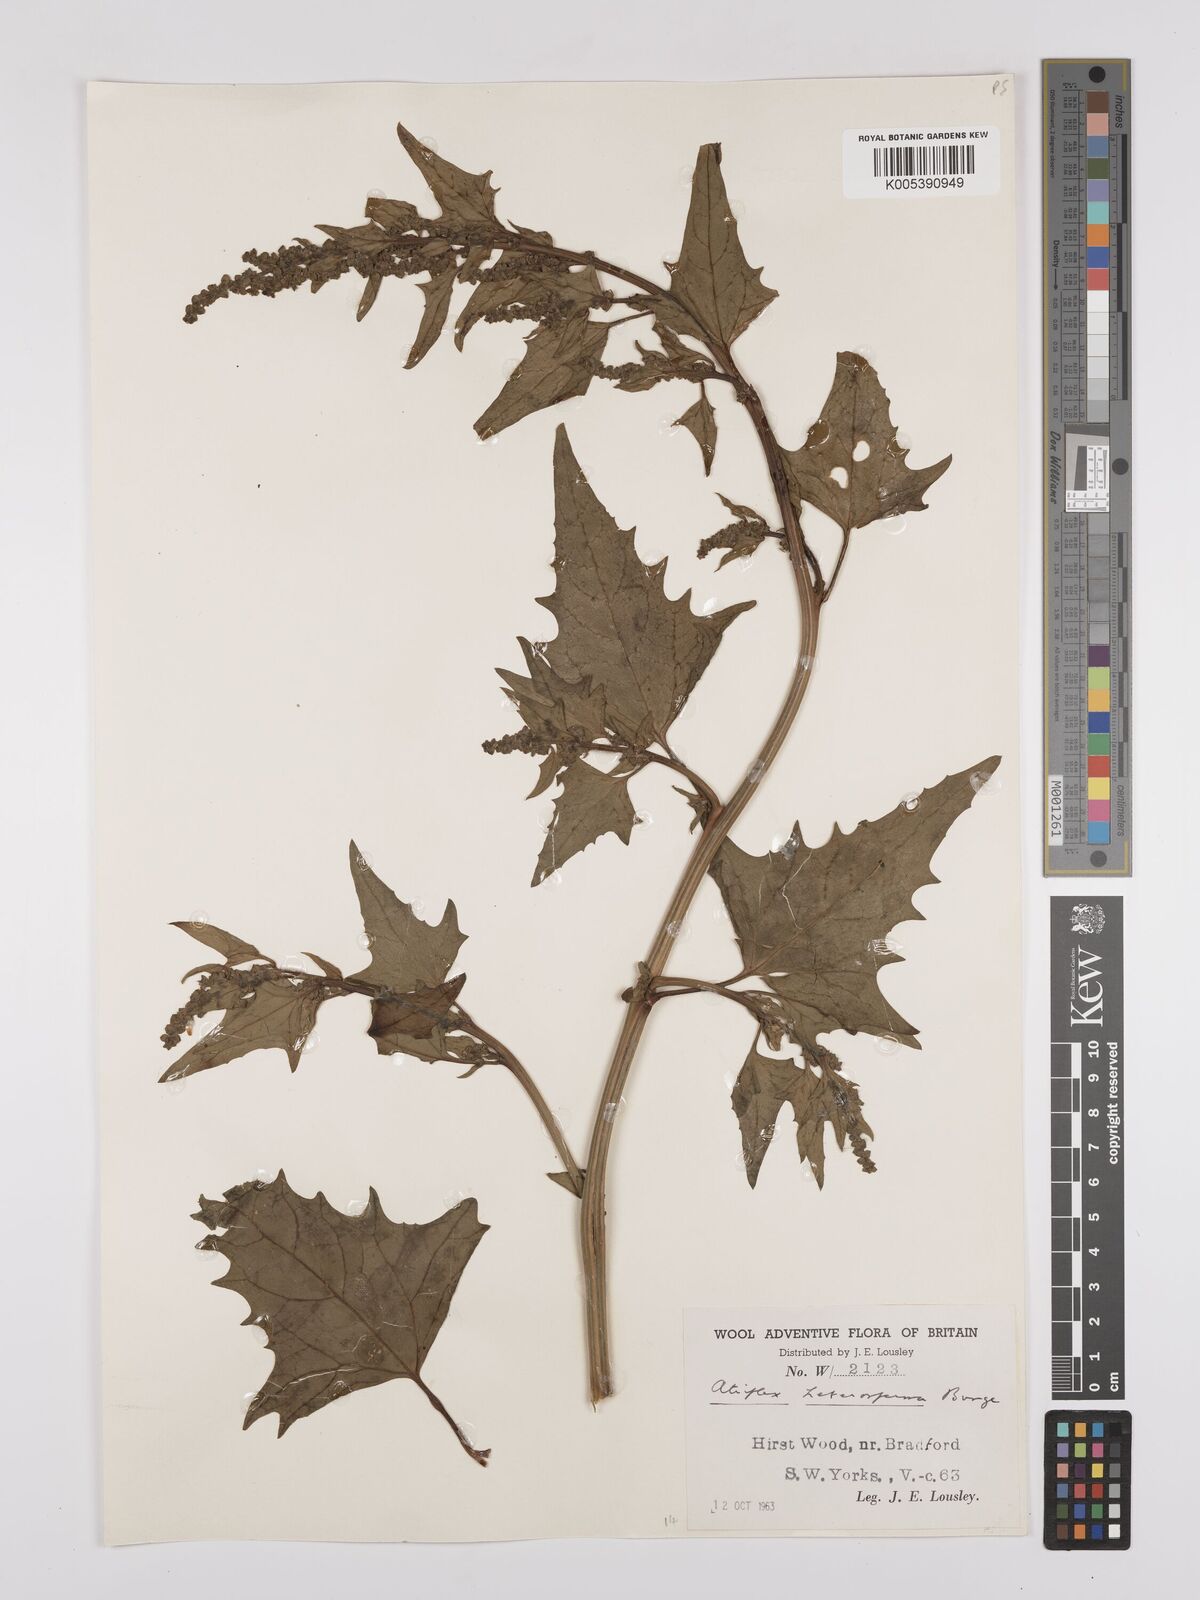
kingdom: Plantae
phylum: Tracheophyta
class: Magnoliopsida
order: Caryophyllales
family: Amaranthaceae
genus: Atriplex
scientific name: Atriplex micrantha
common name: Twoscale saltbush
